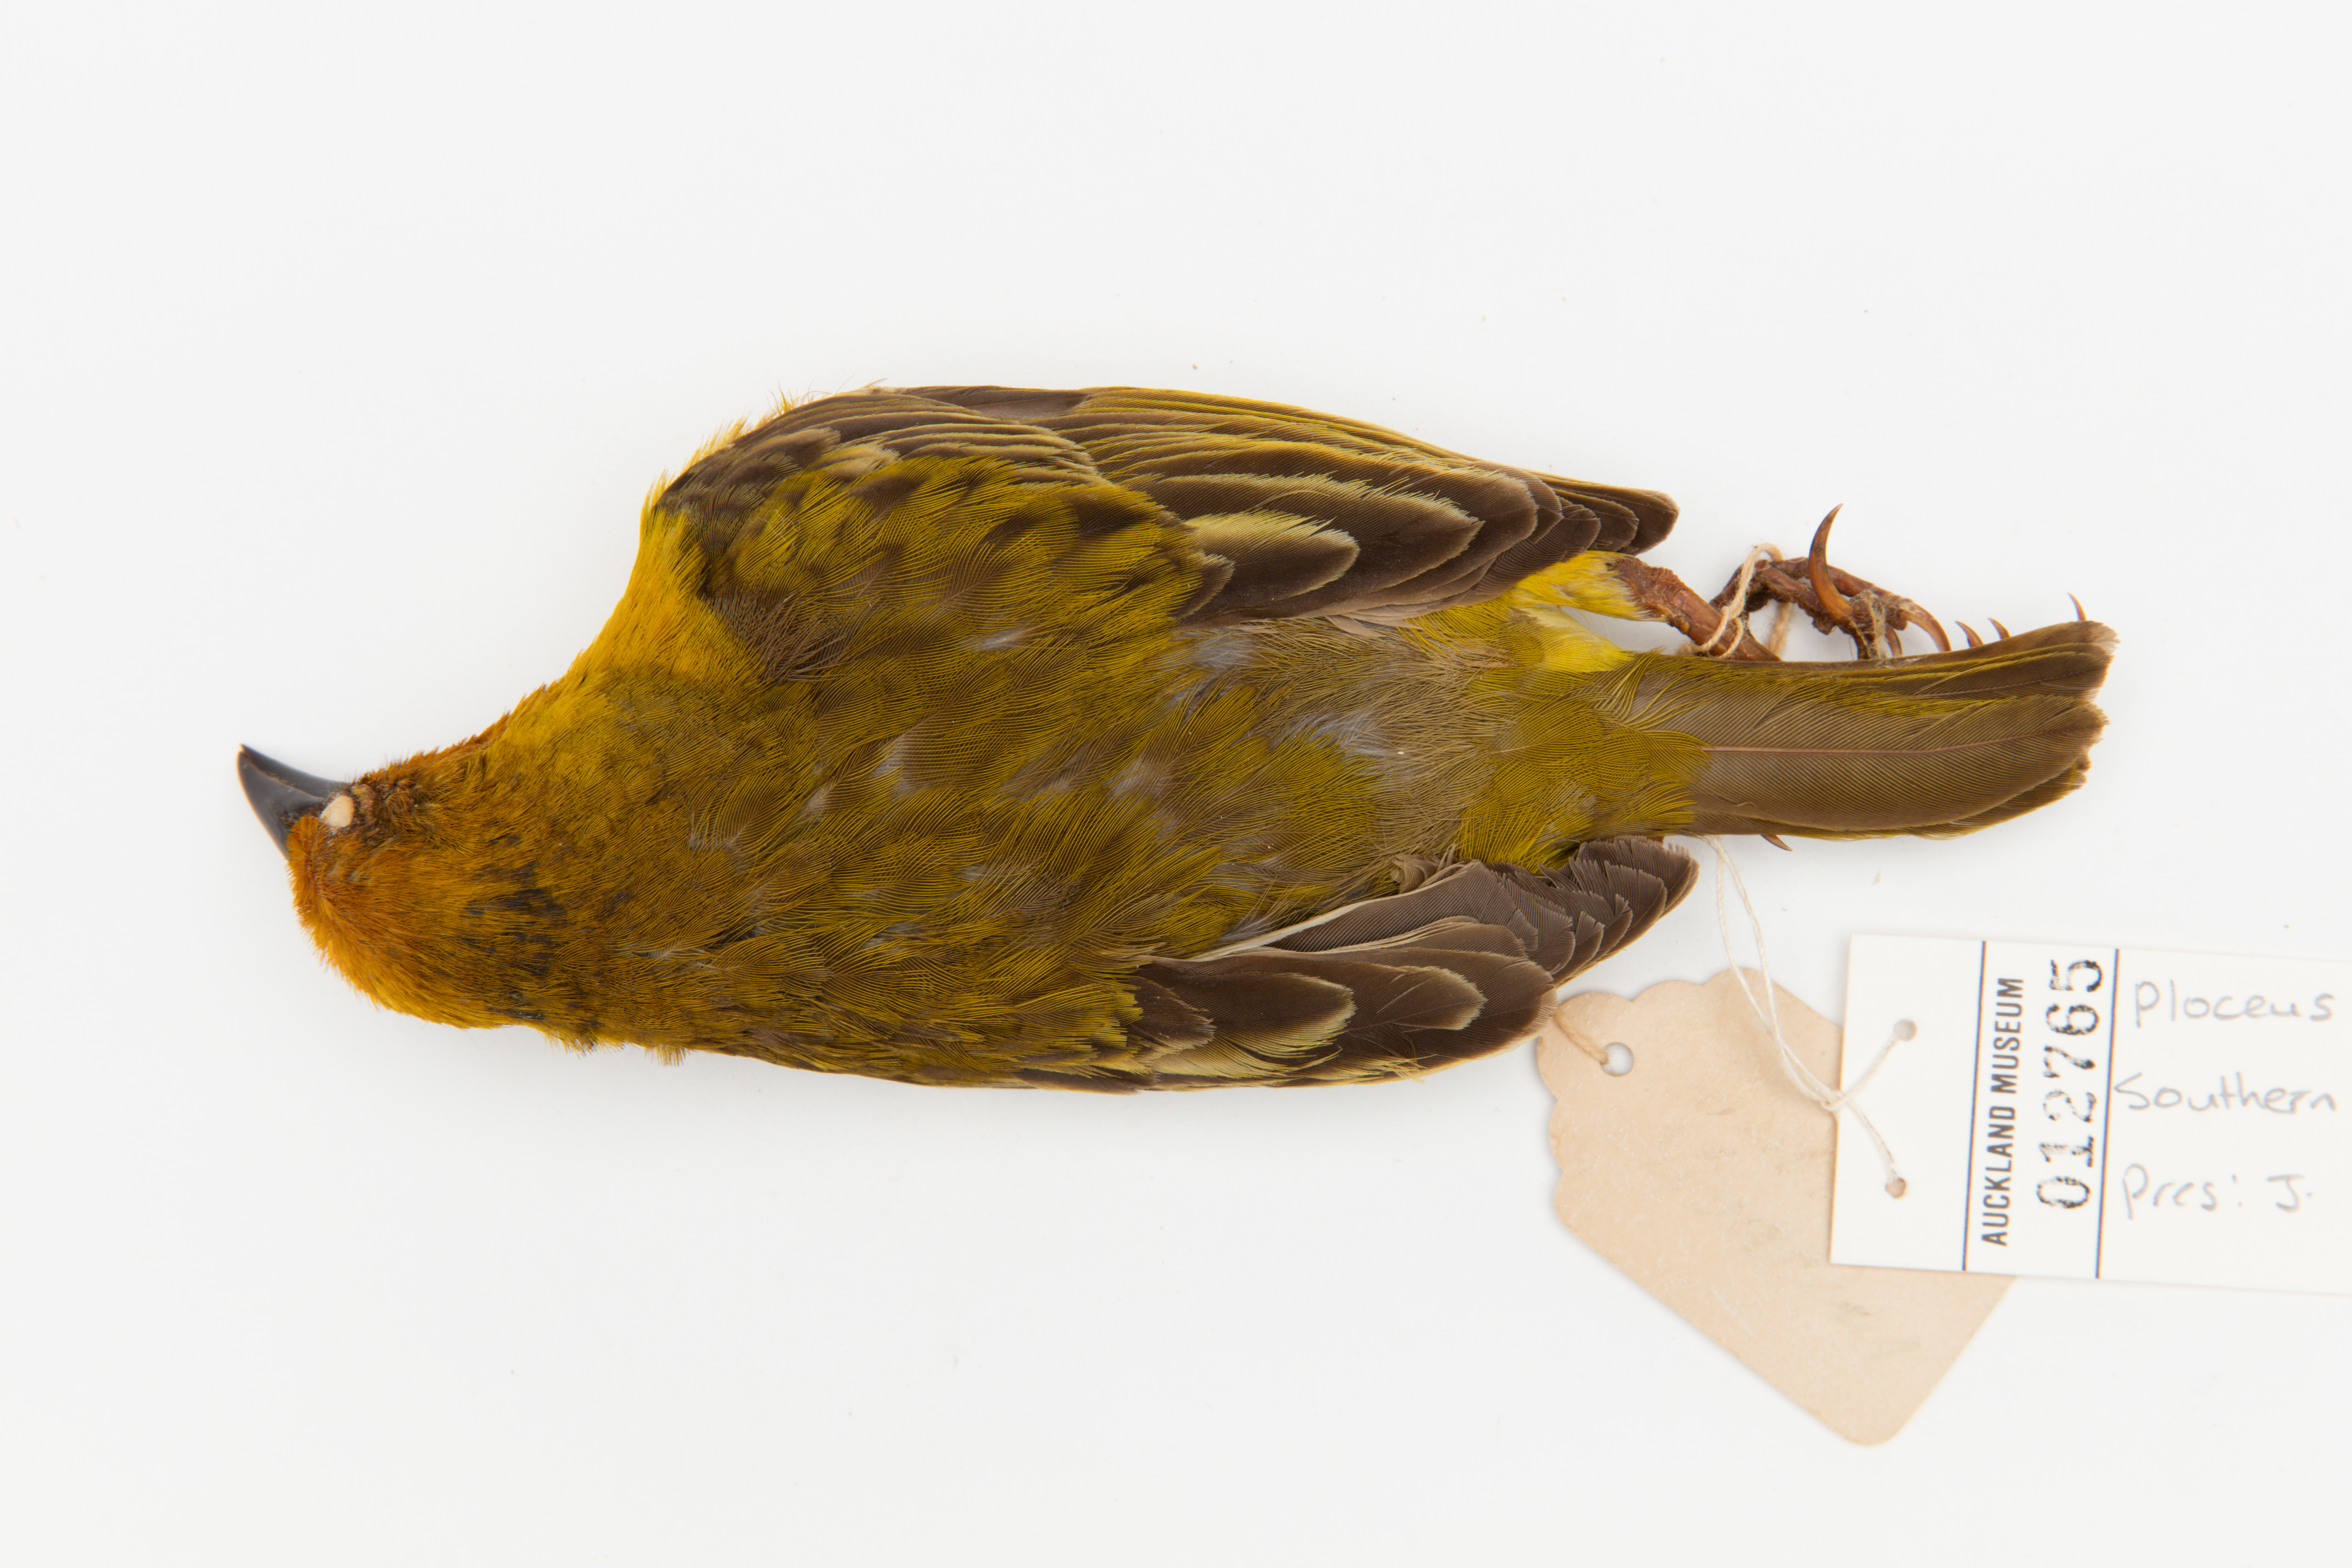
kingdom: Animalia
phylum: Chordata
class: Aves
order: Passeriformes
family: Ploceidae
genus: Ploceus
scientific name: Ploceus capensis
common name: Cape weaver
